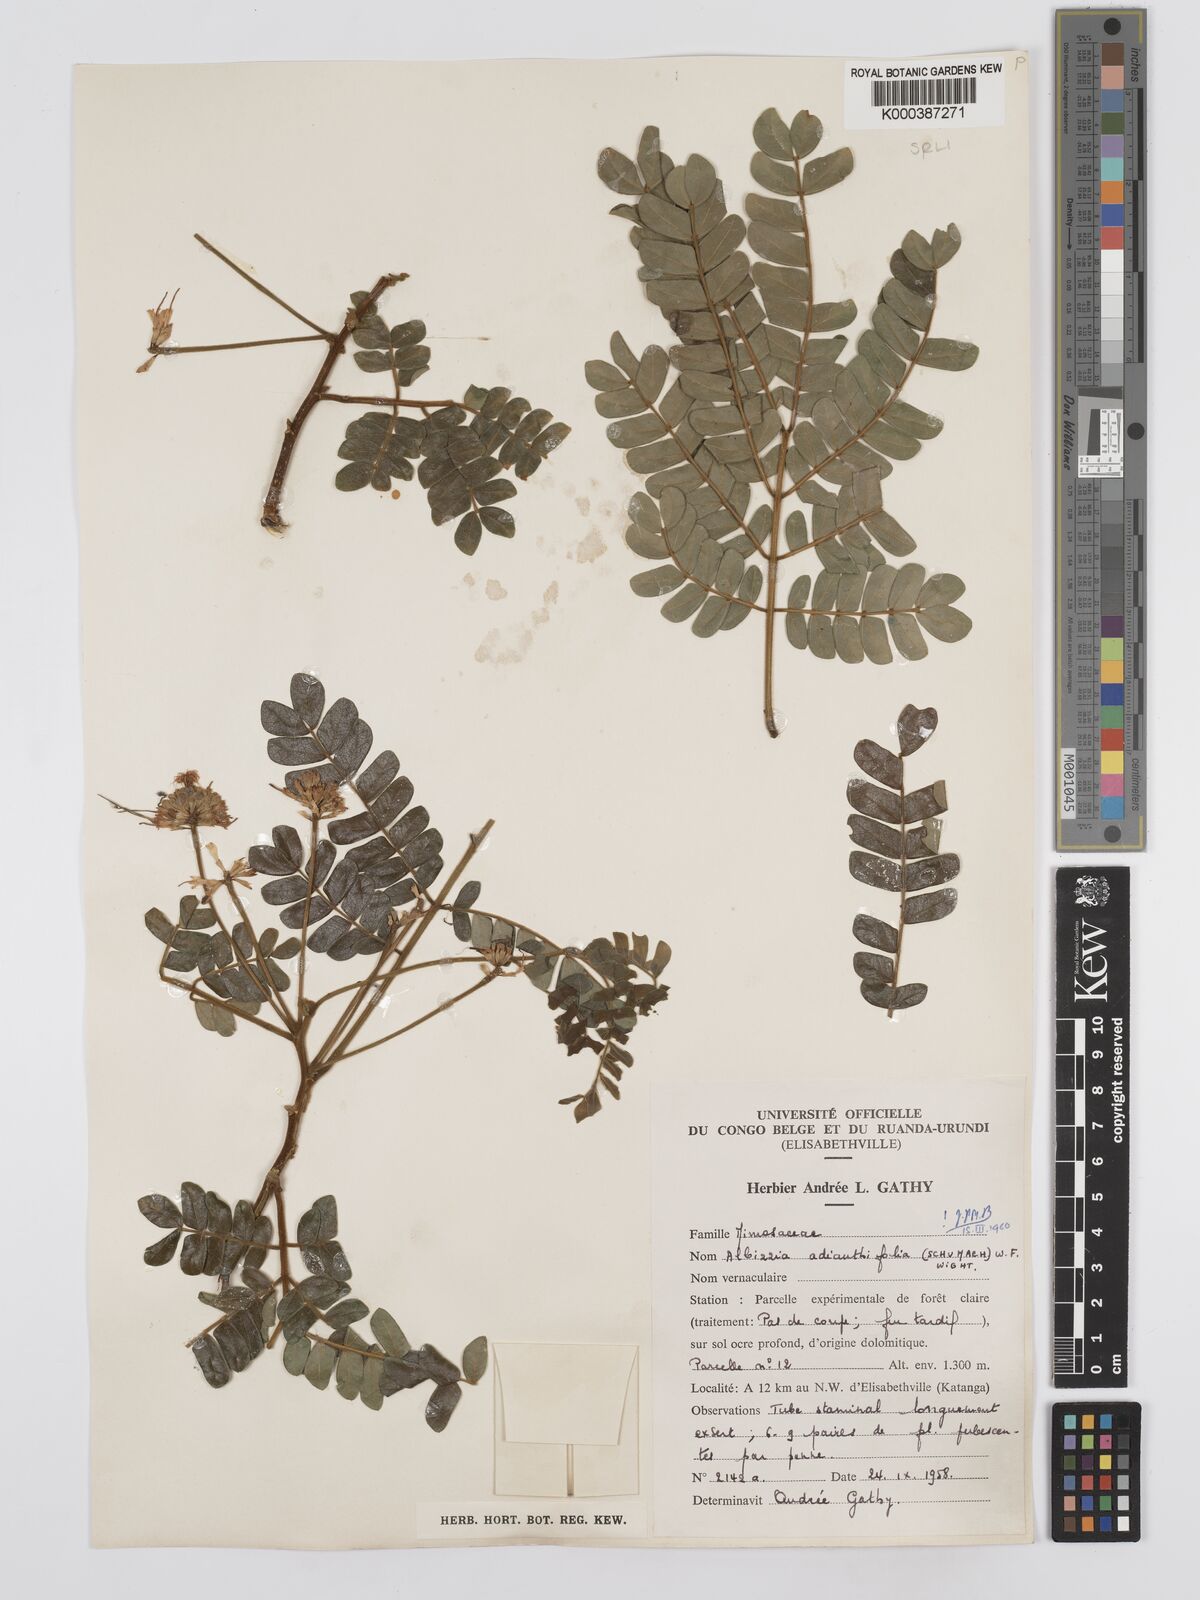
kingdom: Plantae
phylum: Tracheophyta
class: Magnoliopsida
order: Fabales
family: Fabaceae
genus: Albizia
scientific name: Albizia adianthifolia
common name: West african albizia
